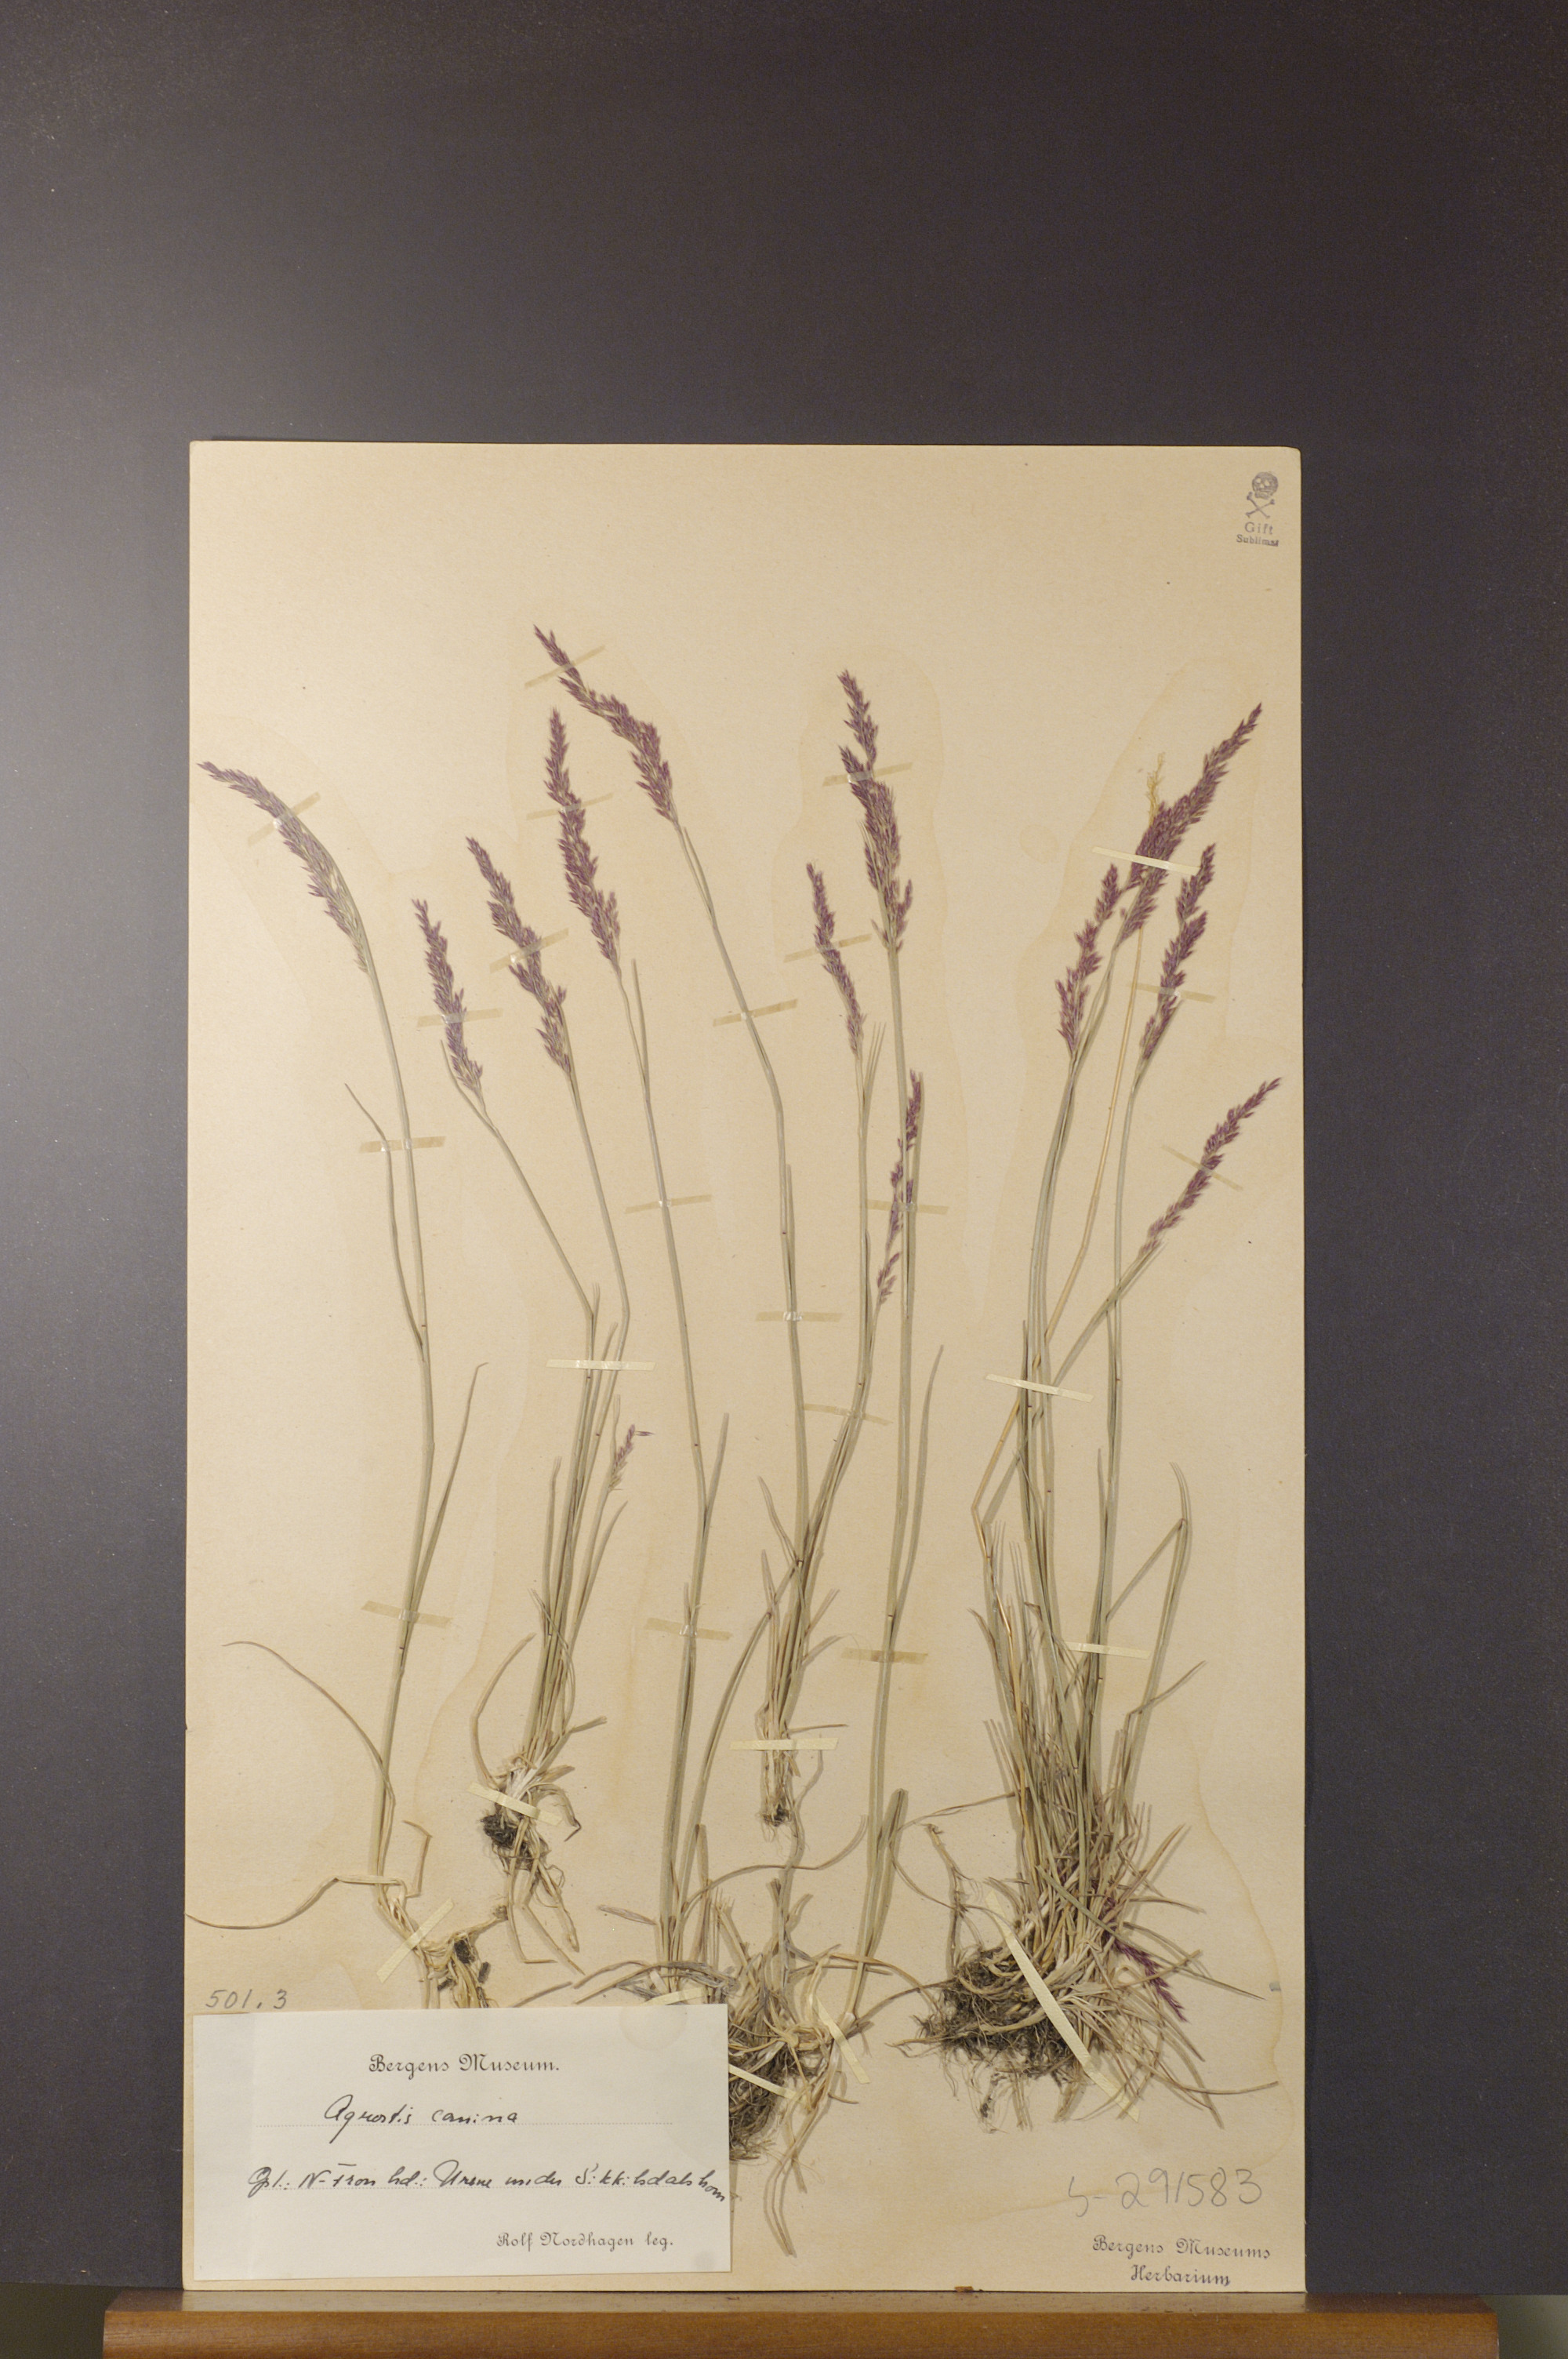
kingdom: Plantae
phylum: Tracheophyta
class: Liliopsida
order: Poales
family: Poaceae
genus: Agrostis
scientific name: Agrostis canina
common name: Velvet bent
